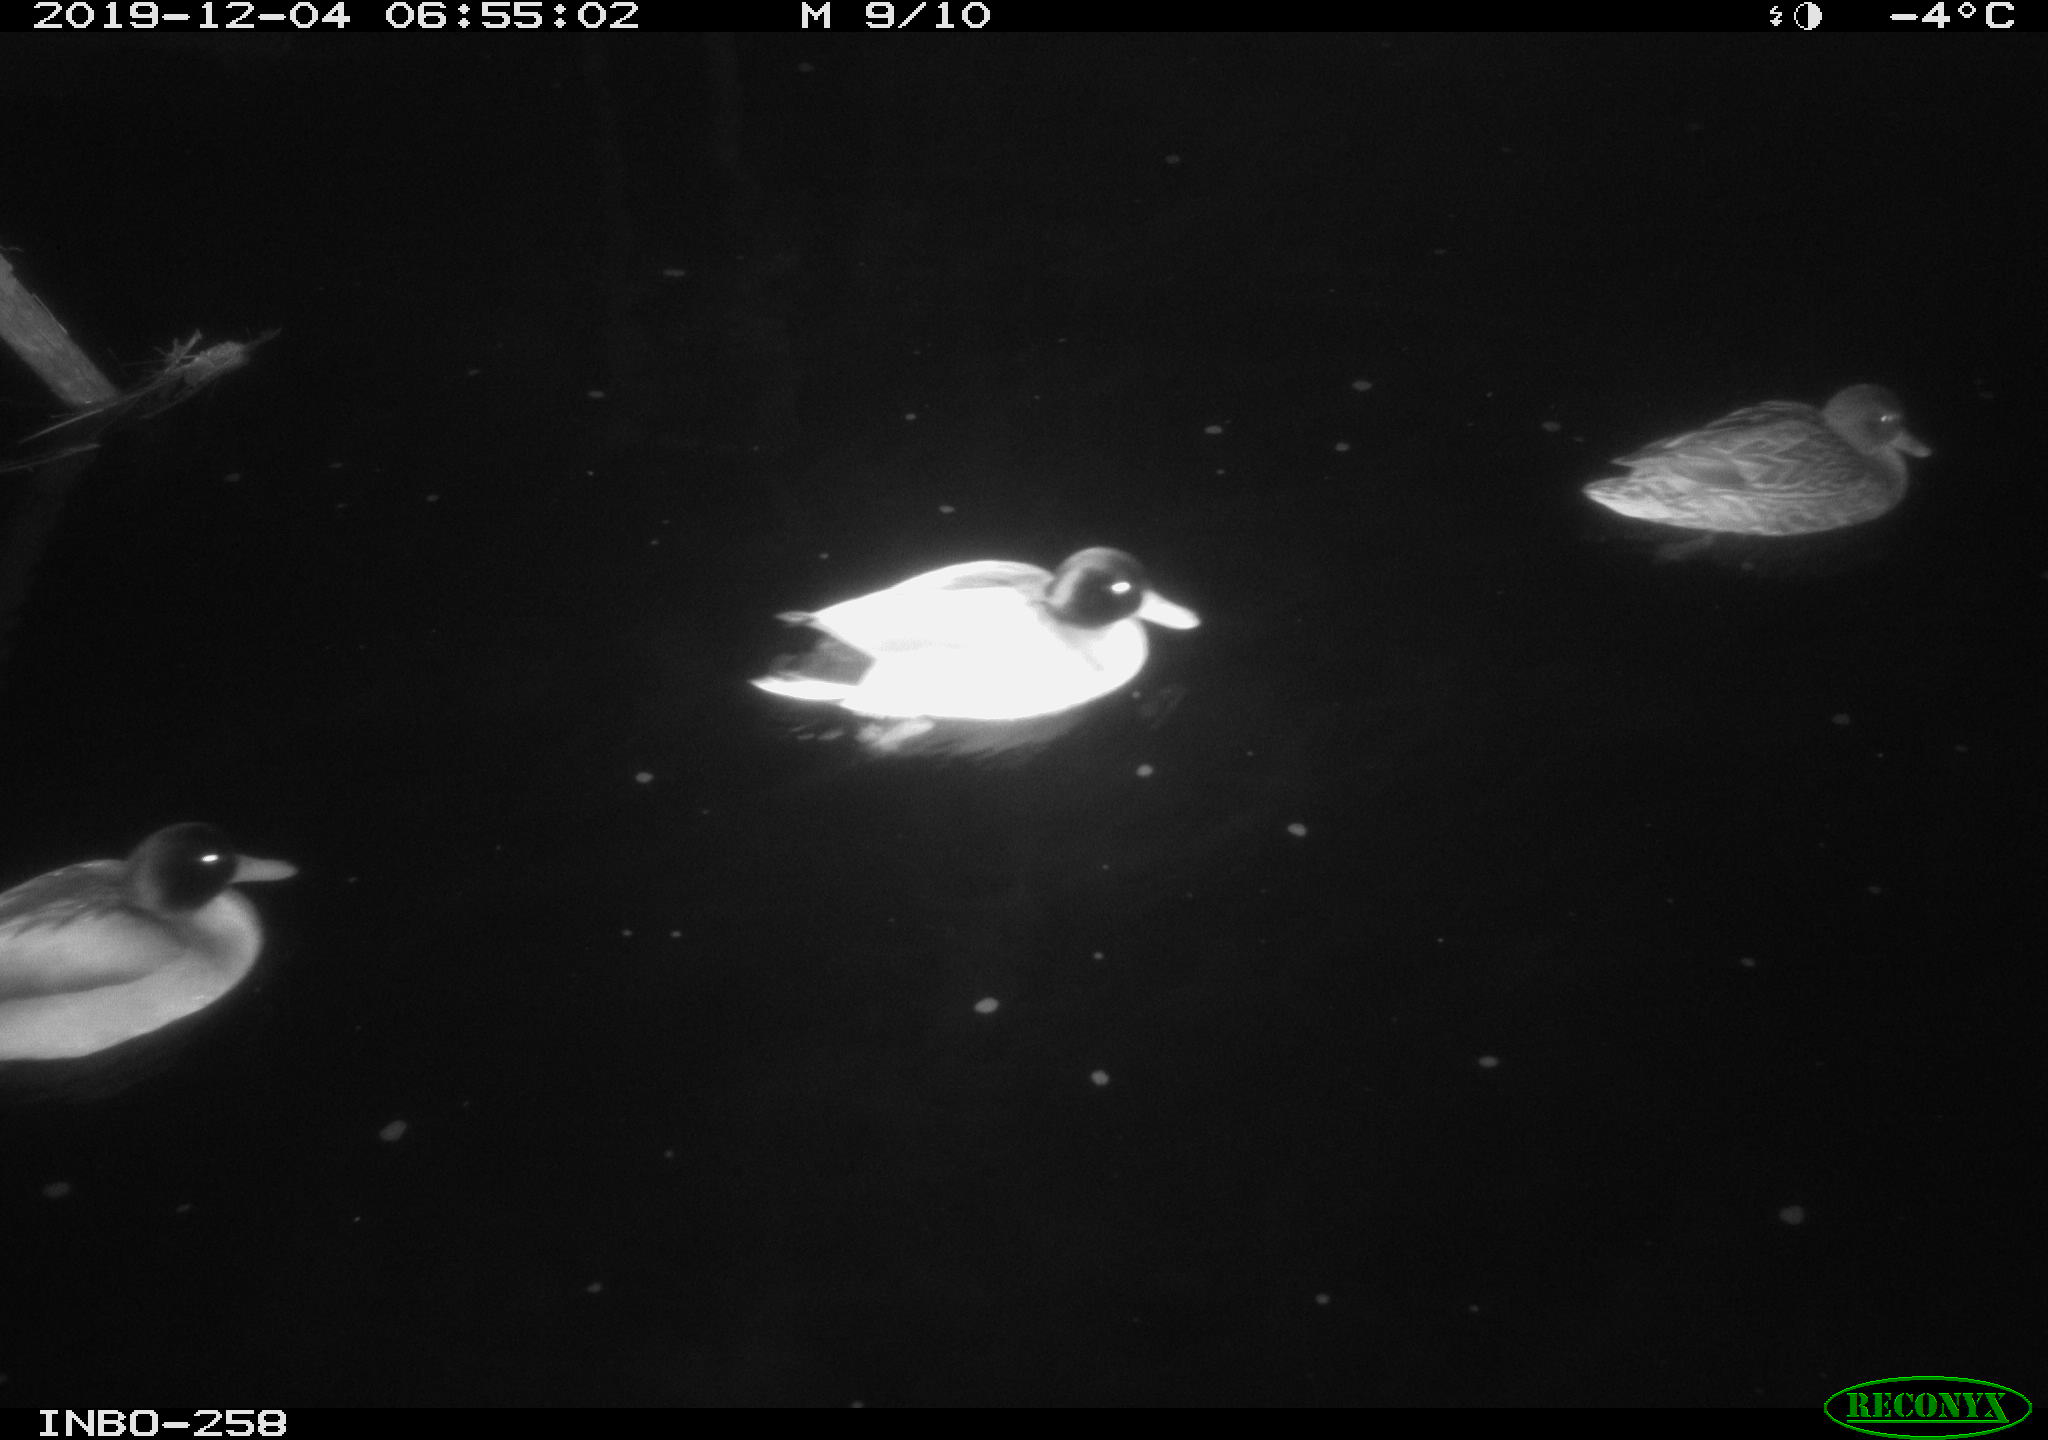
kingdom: Animalia
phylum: Chordata
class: Aves
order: Anseriformes
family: Anatidae
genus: Anas
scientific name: Anas platyrhynchos
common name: Mallard
